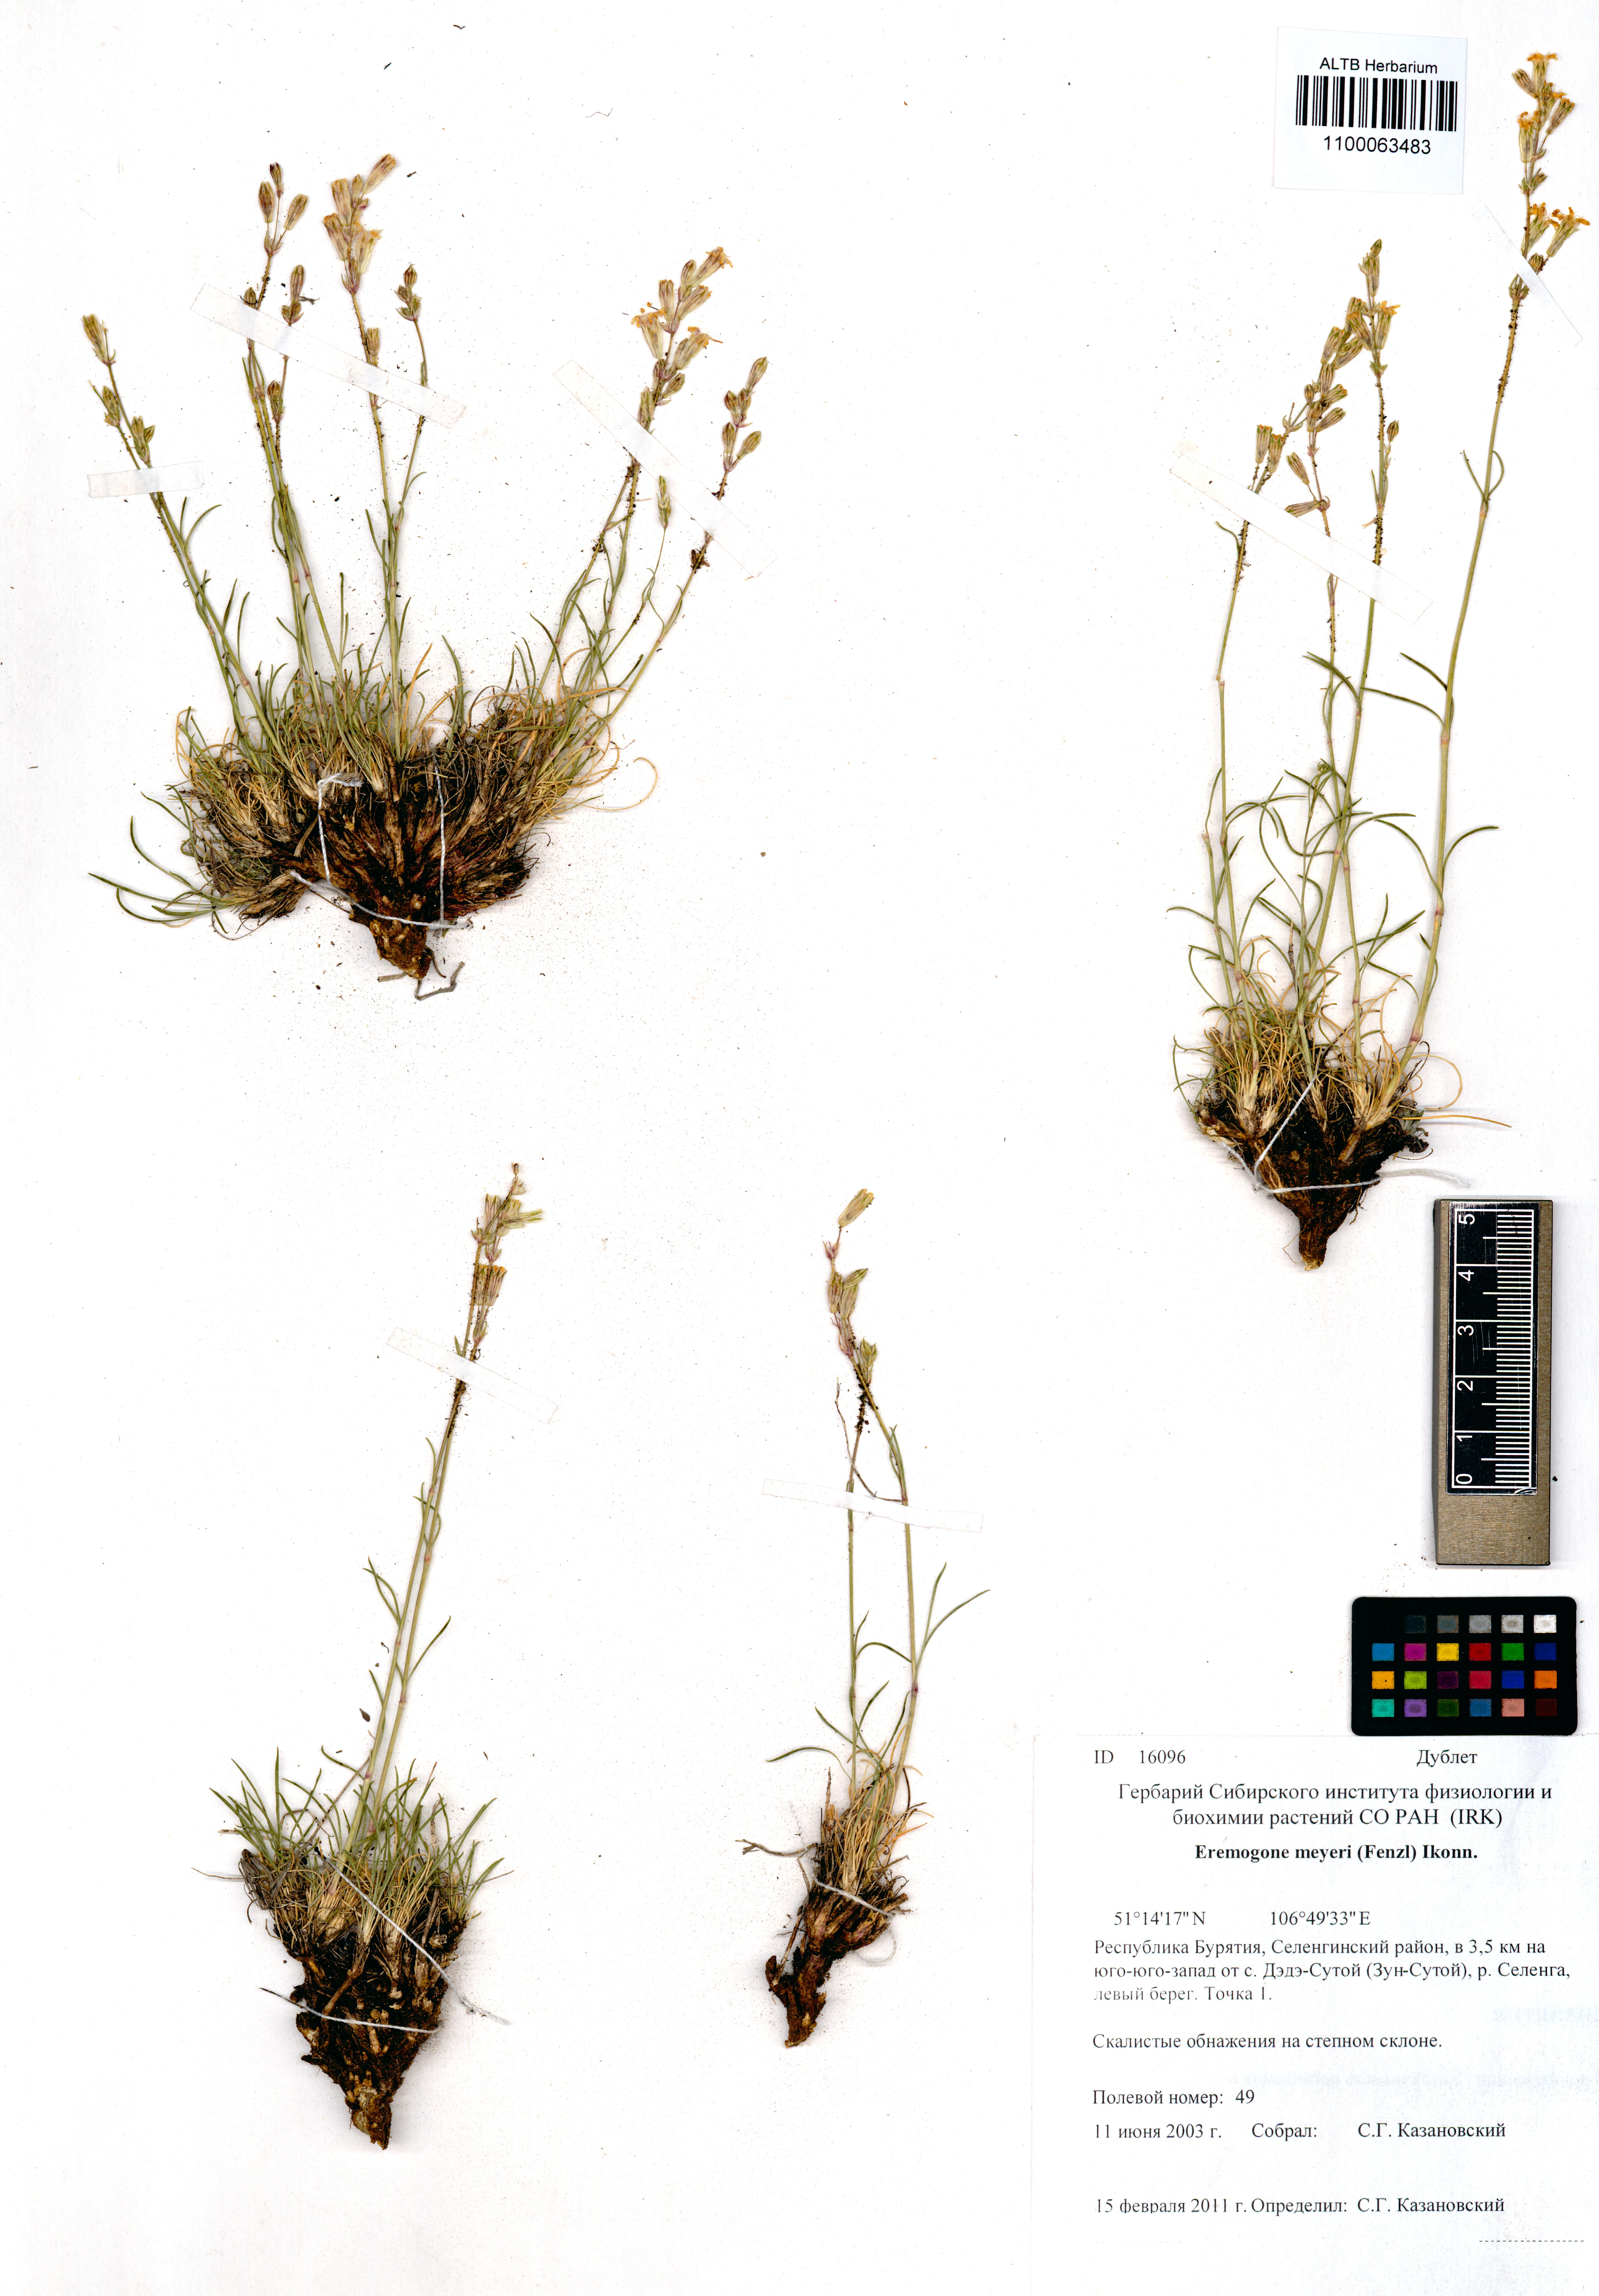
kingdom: Plantae
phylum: Tracheophyta
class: Magnoliopsida
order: Caryophyllales
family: Caryophyllaceae
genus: Eremogone
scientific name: Eremogone meyeri
